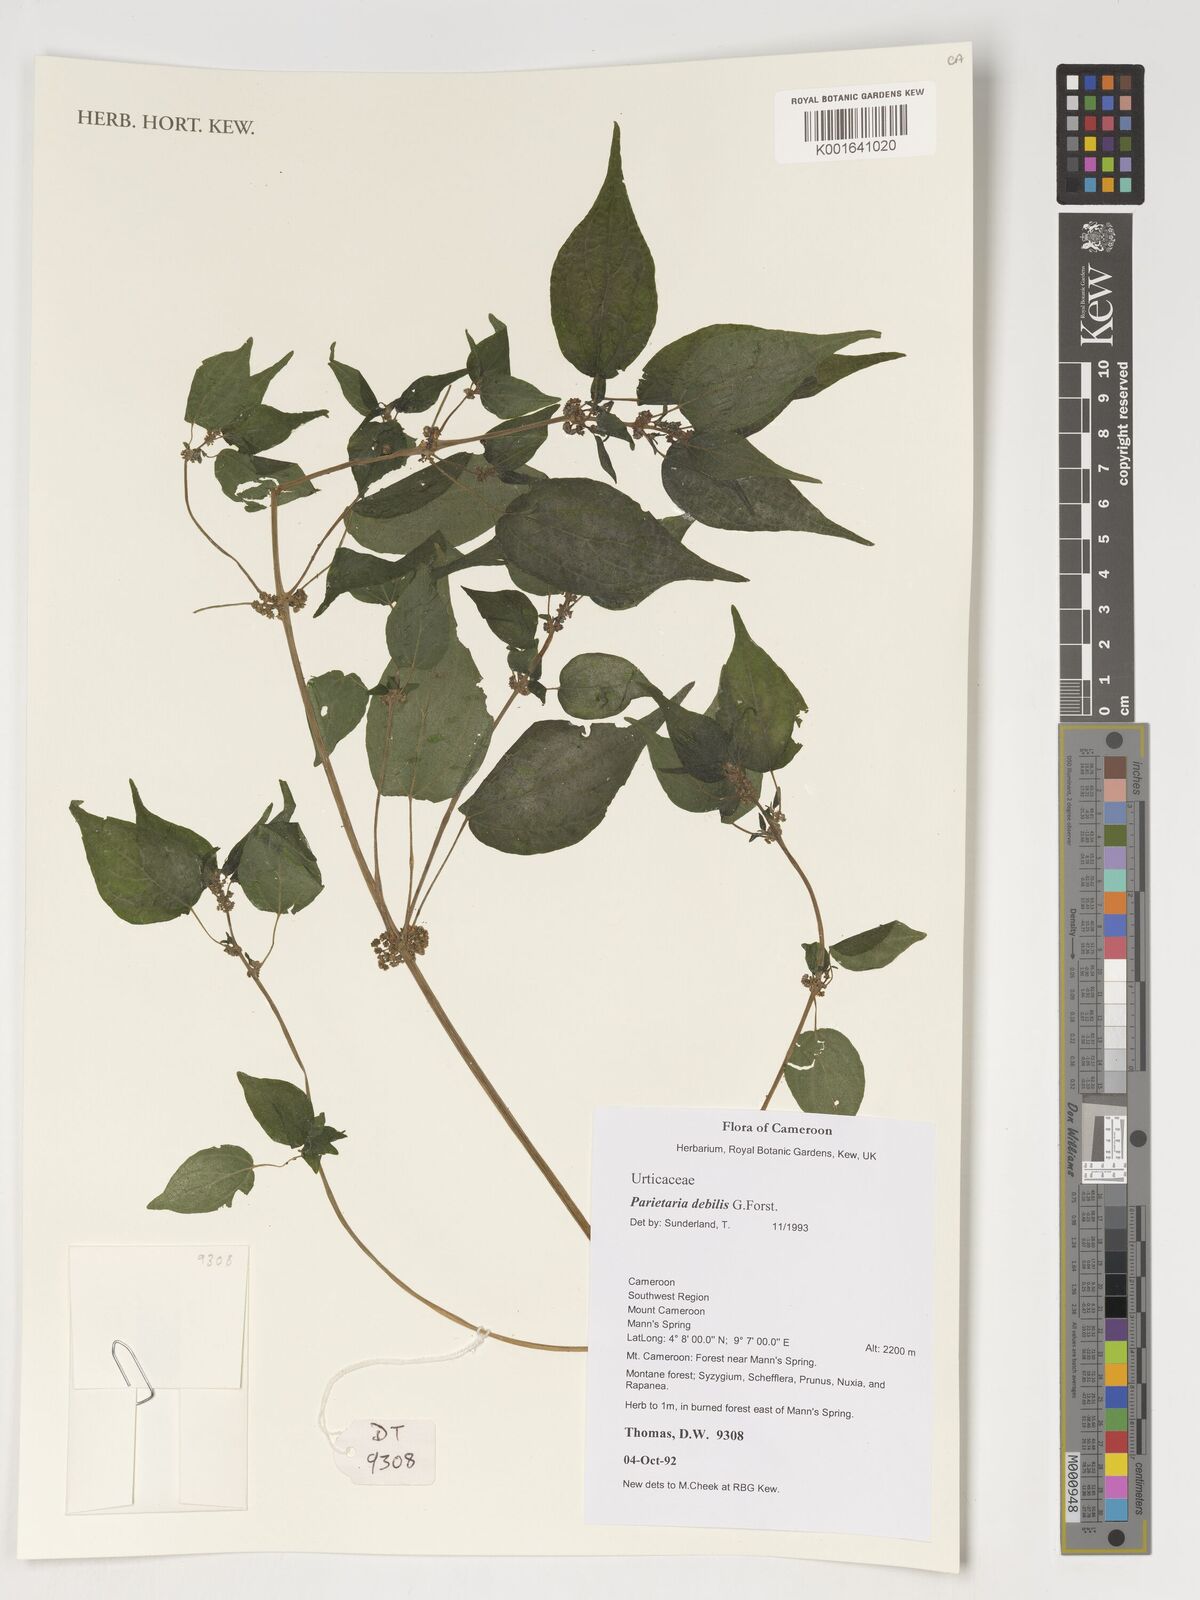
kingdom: Plantae
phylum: Tracheophyta
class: Magnoliopsida
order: Rosales
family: Urticaceae
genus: Parietaria
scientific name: Parietaria debilis
